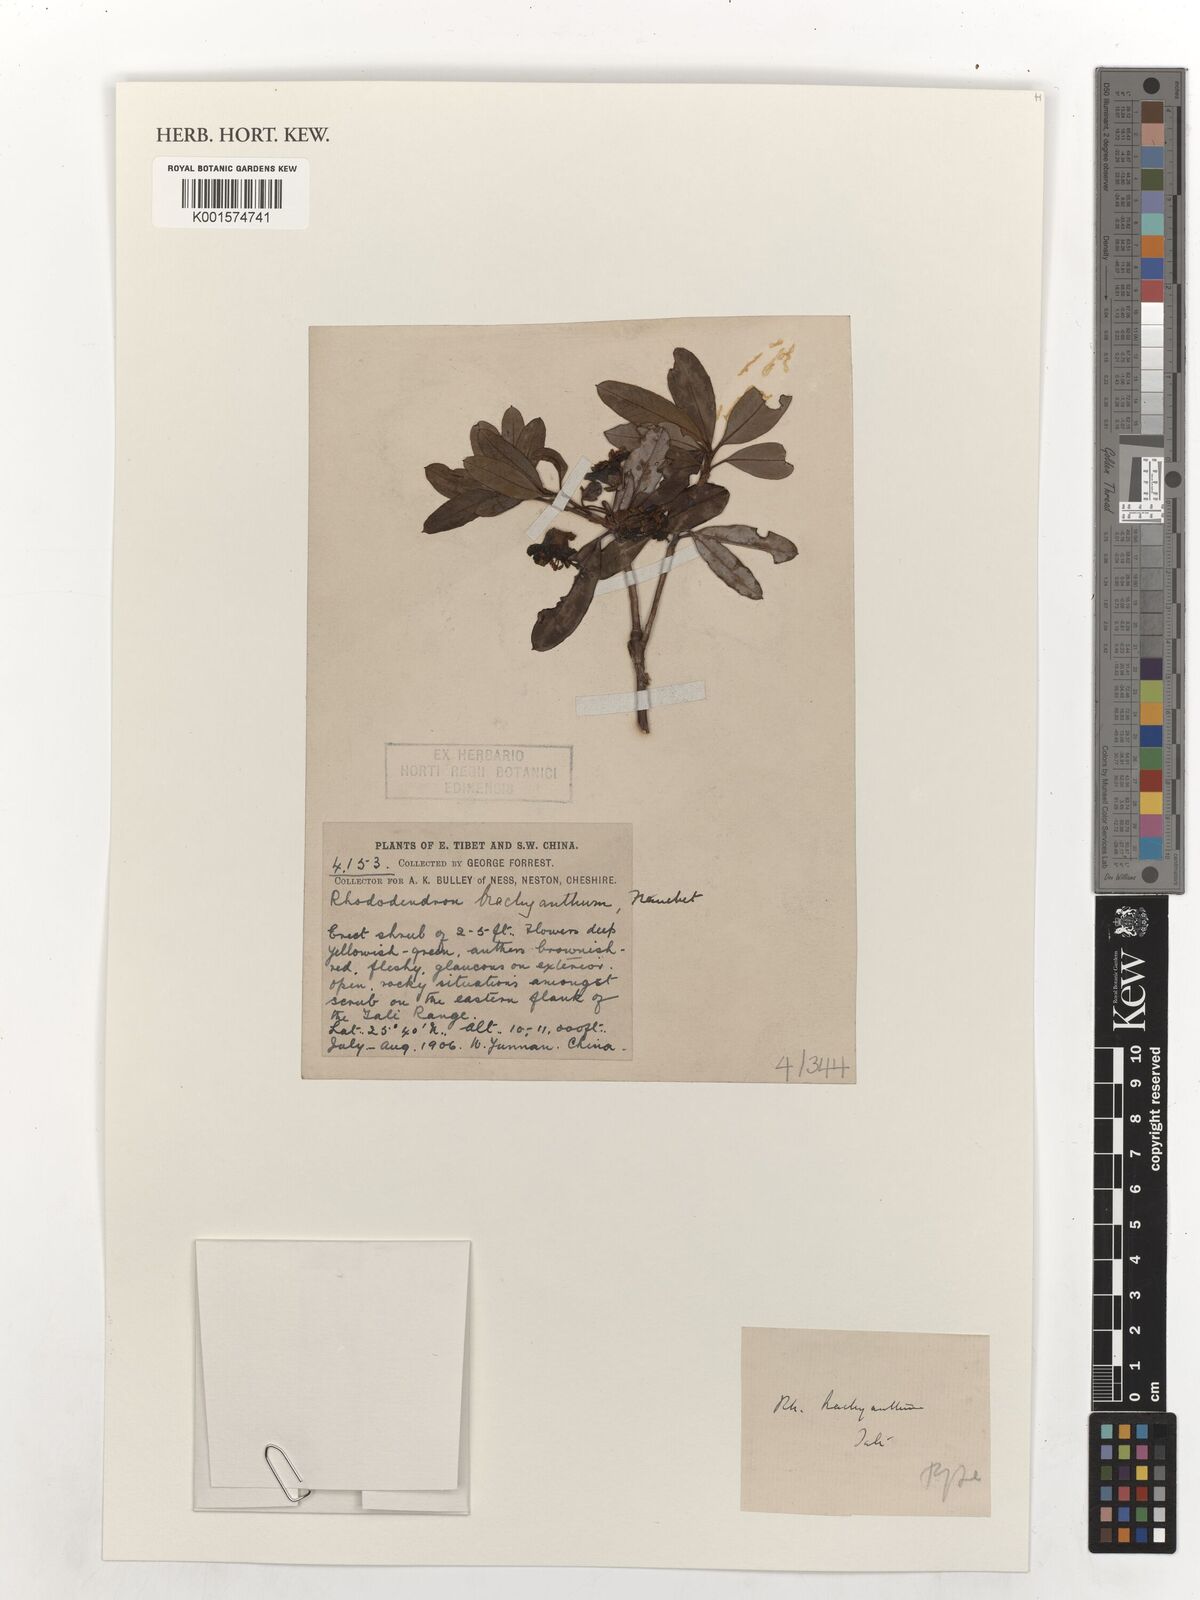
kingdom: Plantae
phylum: Tracheophyta
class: Magnoliopsida
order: Ericales
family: Ericaceae
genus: Rhododendron
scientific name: Rhododendron brachyanthum
